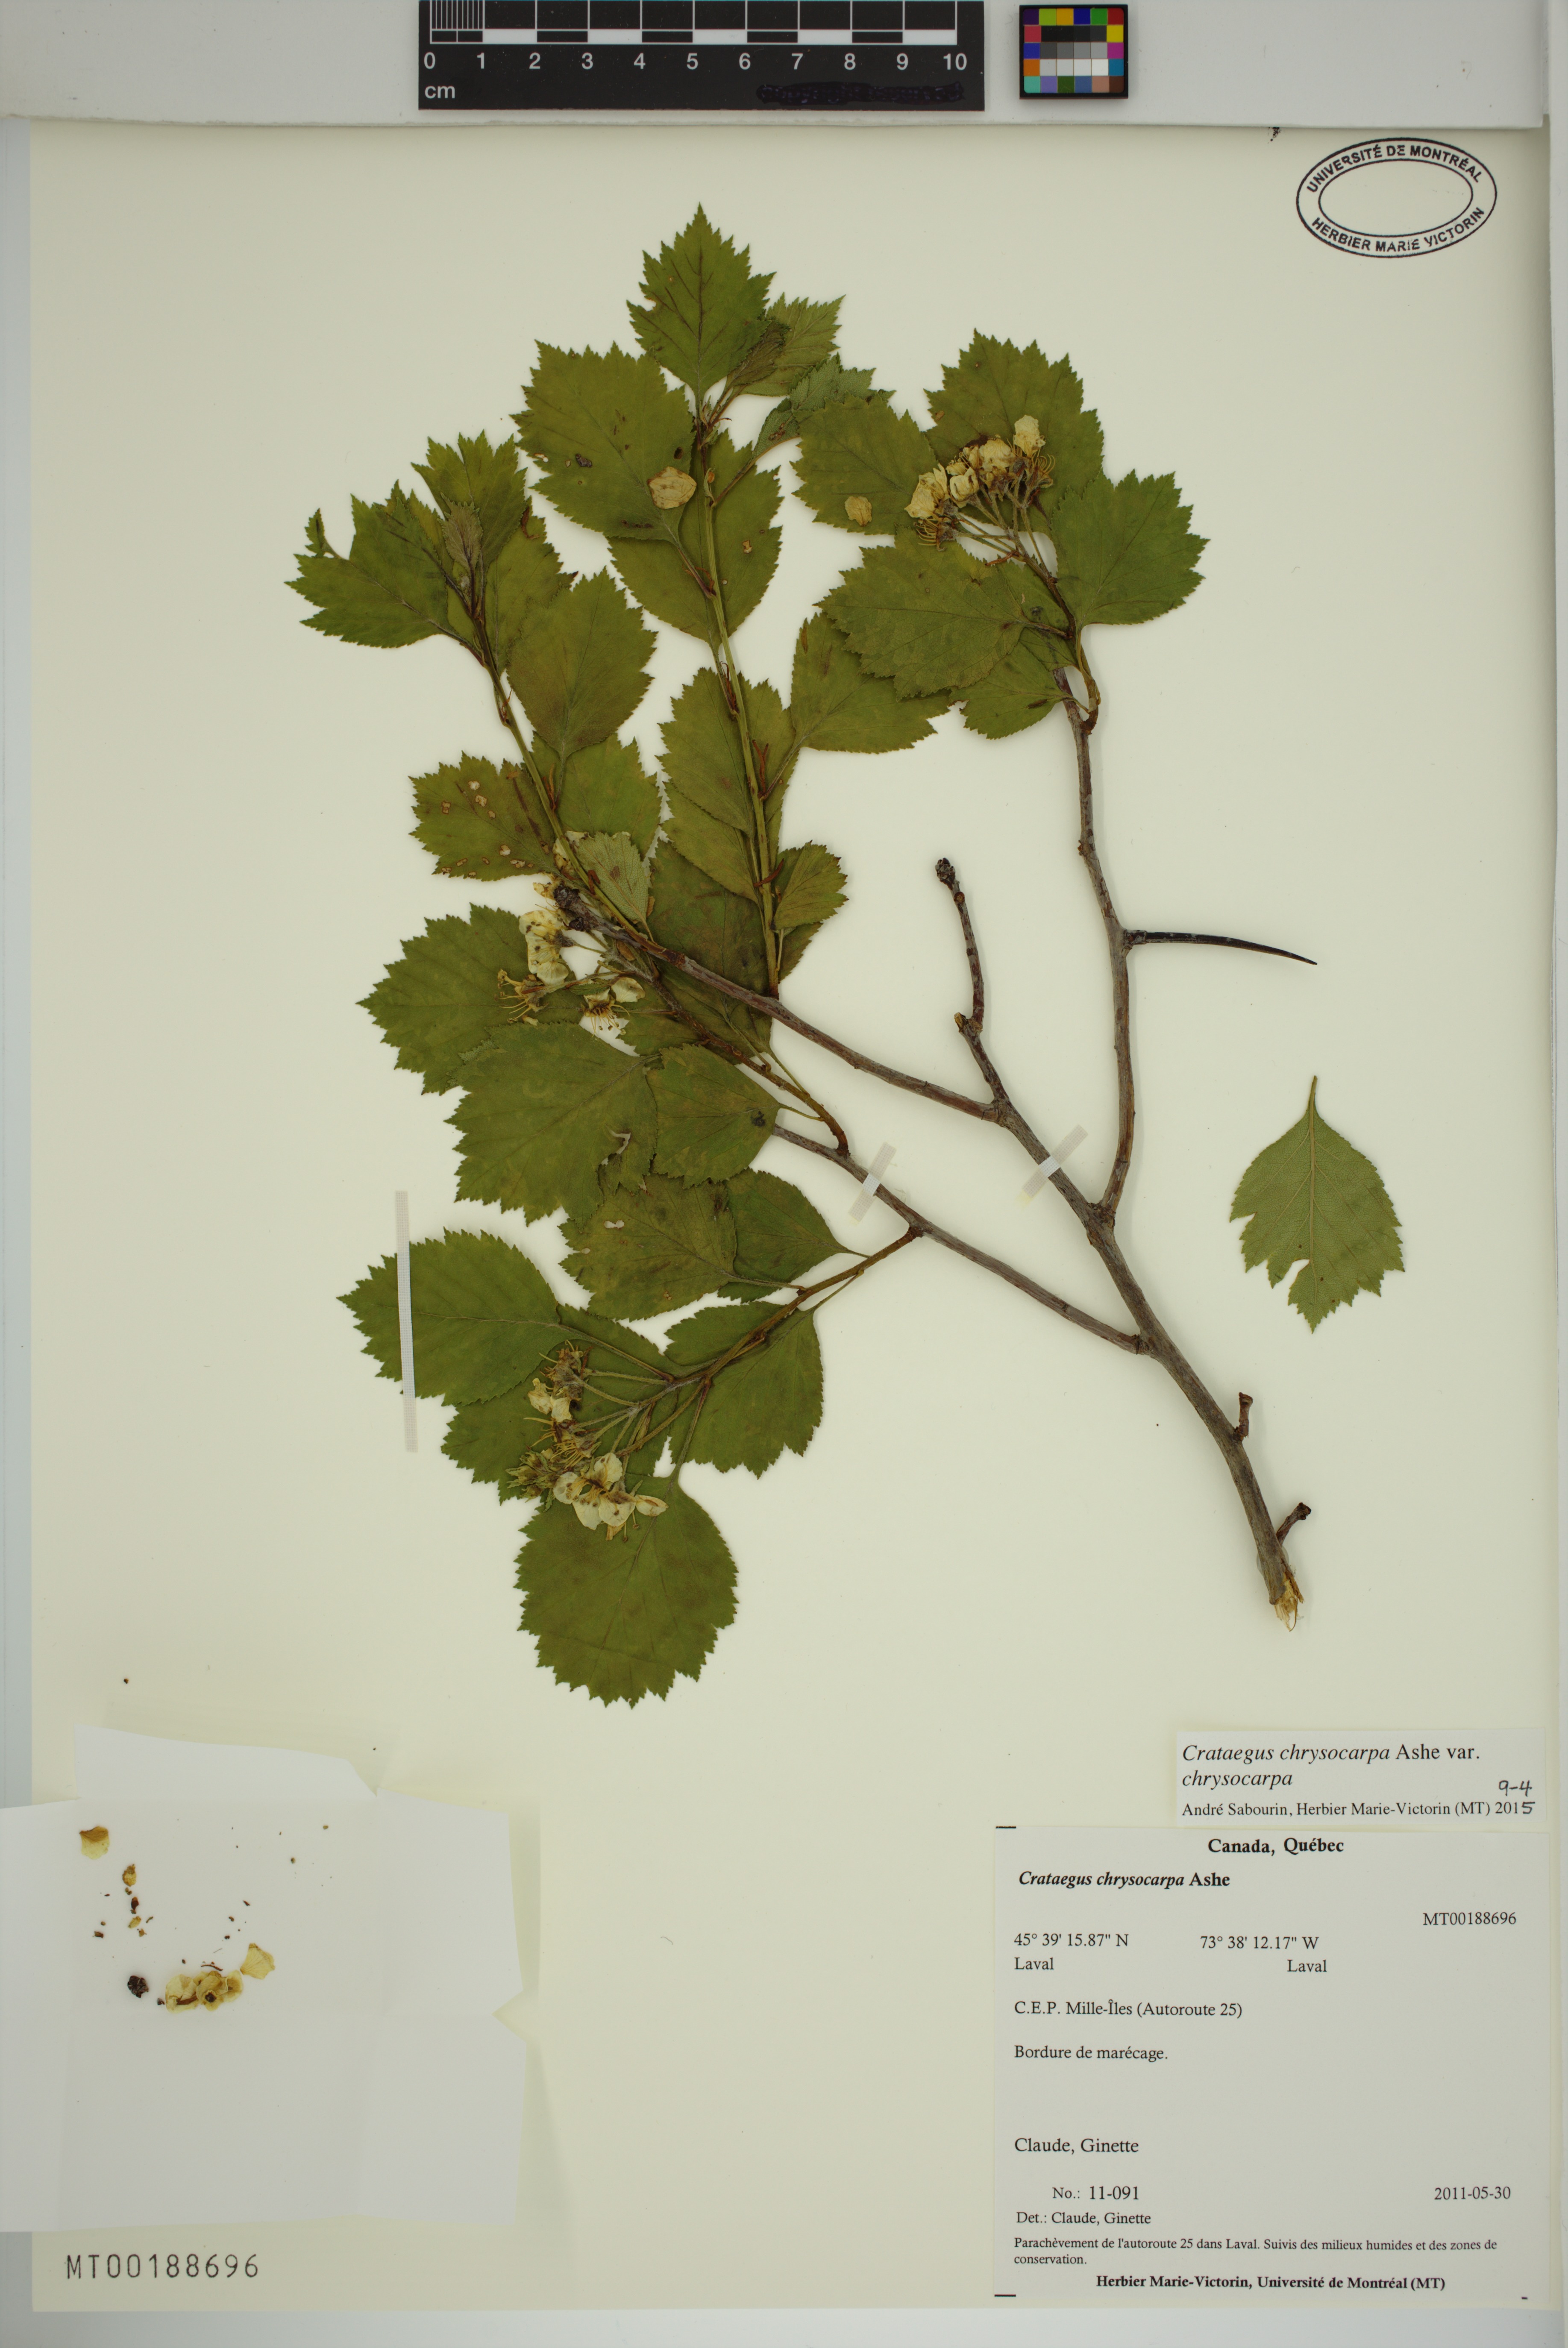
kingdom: Plantae
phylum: Tracheophyta
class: Magnoliopsida
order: Rosales
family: Rosaceae
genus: Crataegus
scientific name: Crataegus chrysocarpa
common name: Fire-berry hawthorn
